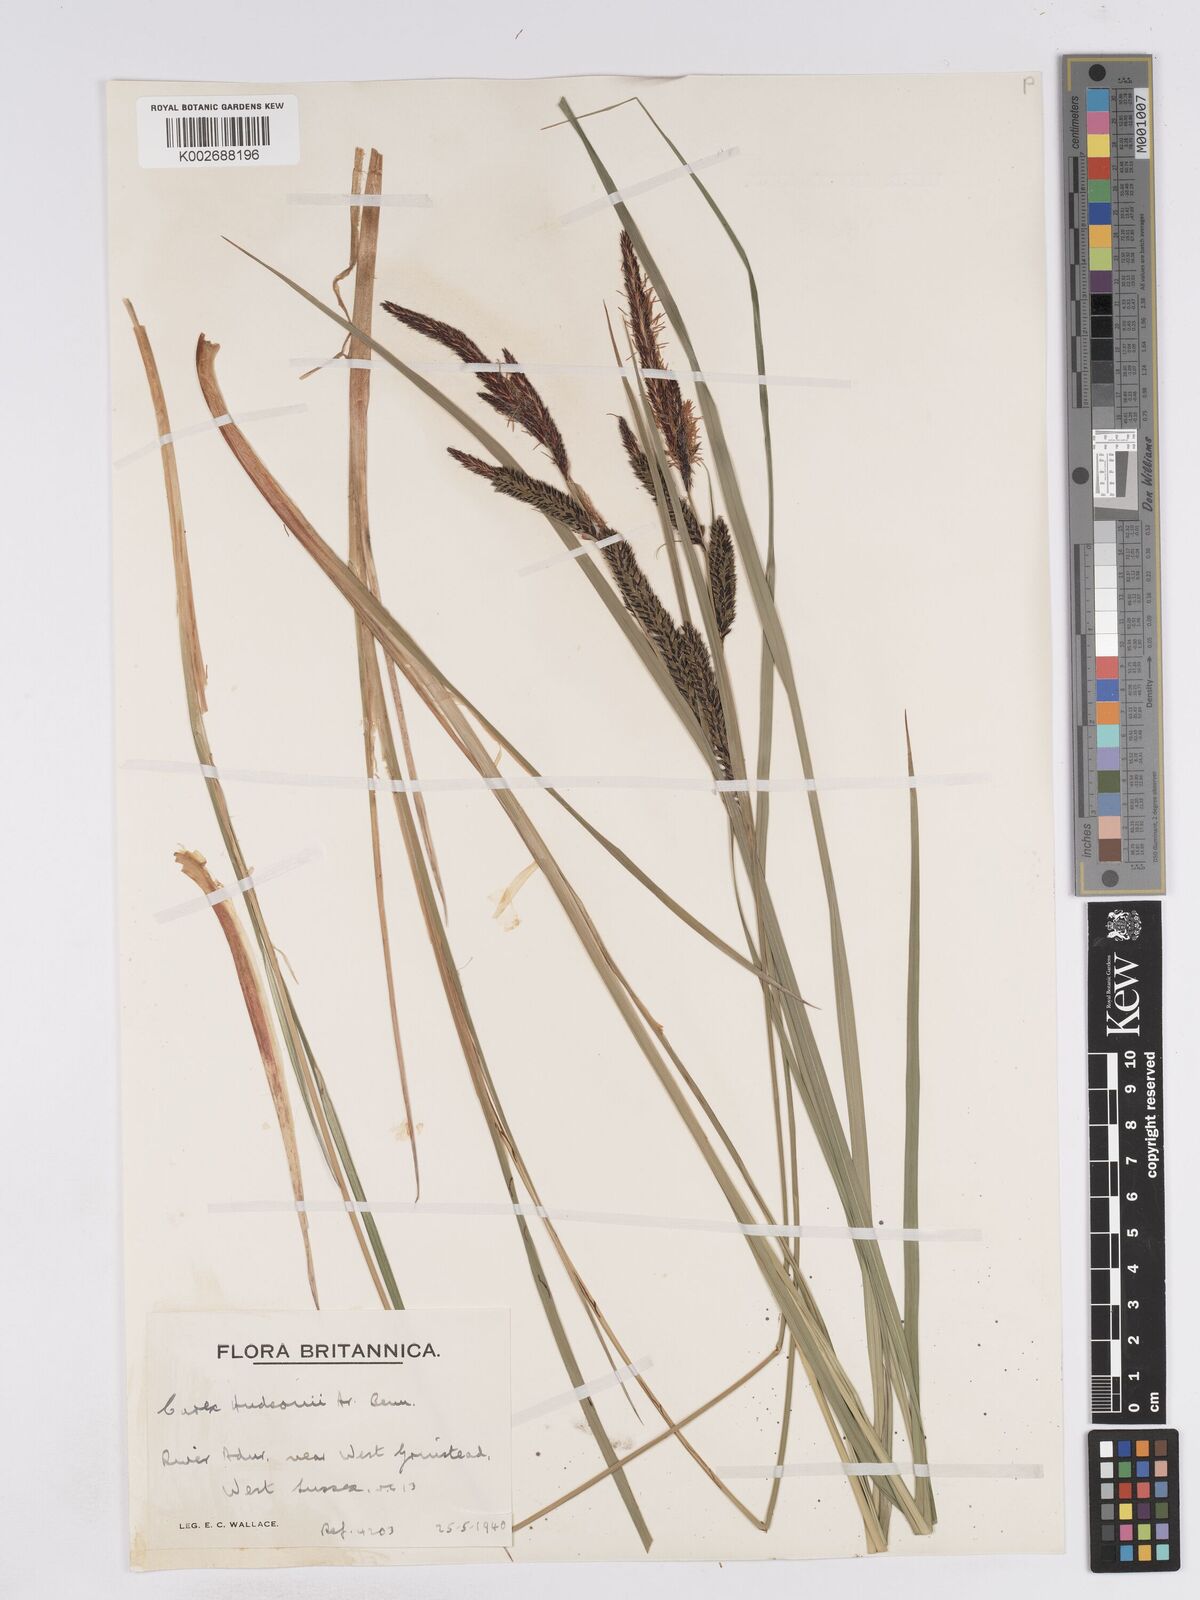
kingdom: Plantae
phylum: Tracheophyta
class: Liliopsida
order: Poales
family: Cyperaceae
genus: Carex
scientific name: Carex elata
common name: Tufted sedge
